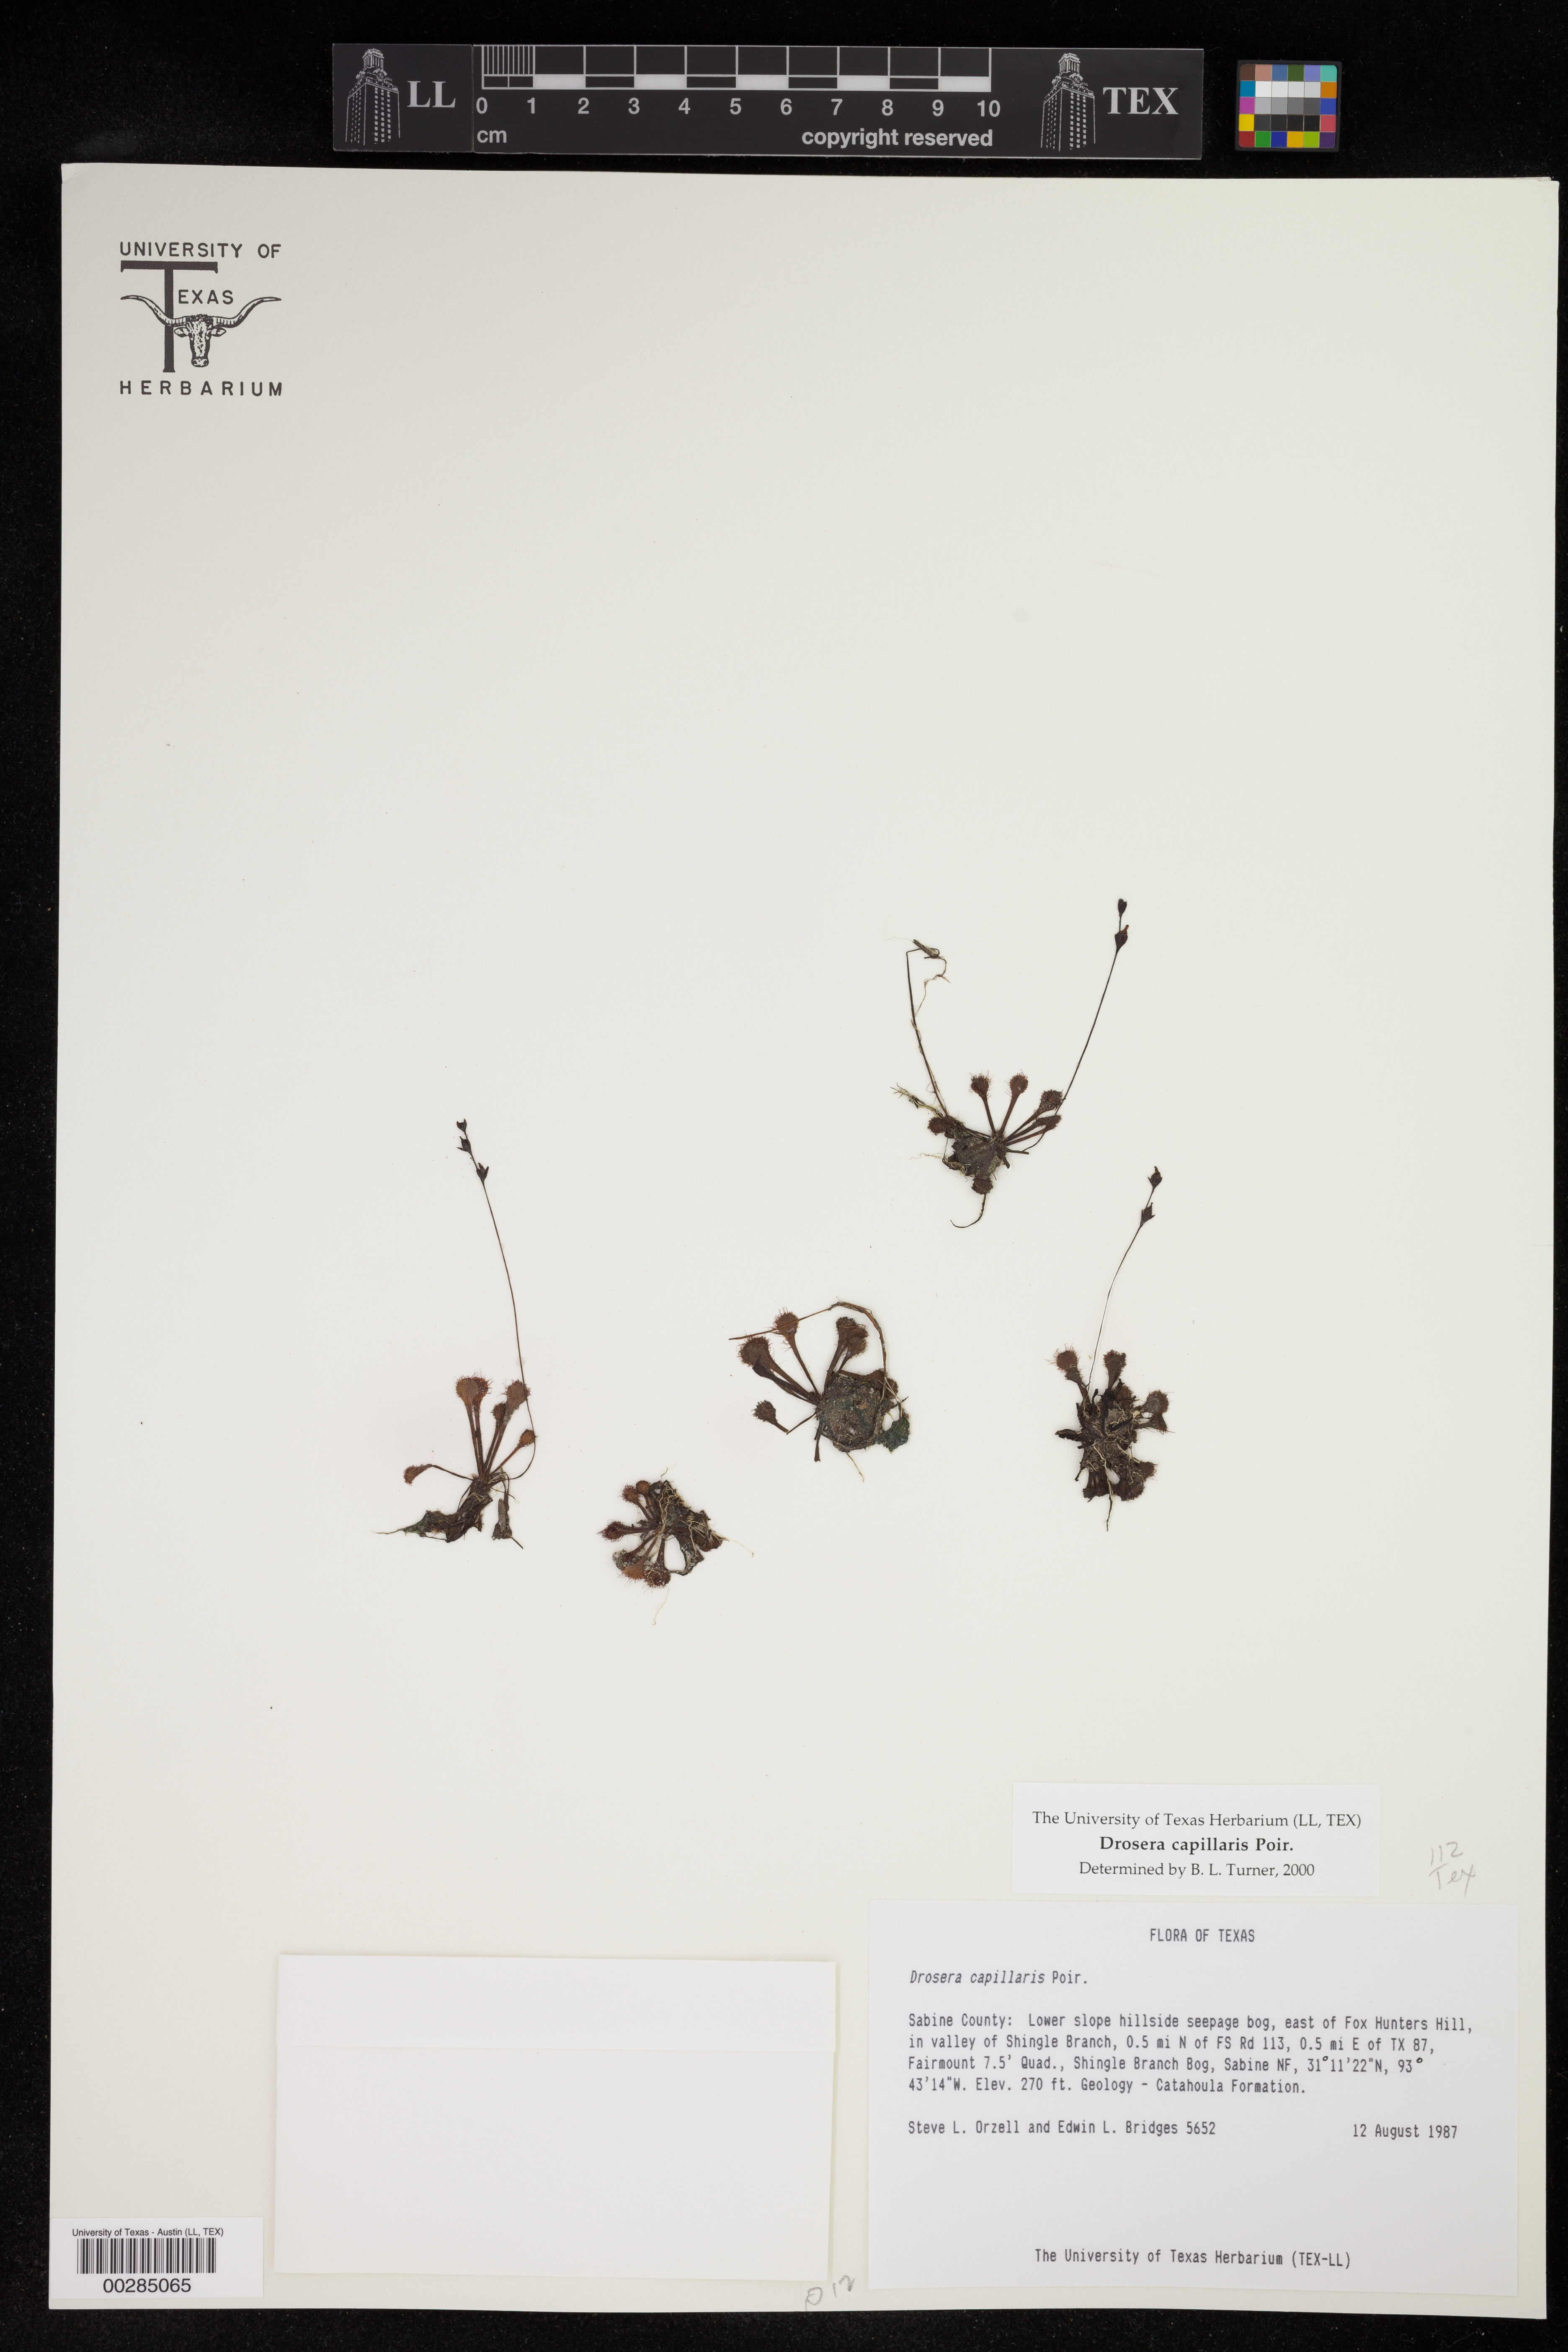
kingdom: Plantae
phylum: Tracheophyta
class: Magnoliopsida
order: Caryophyllales
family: Droseraceae
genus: Drosera
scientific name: Drosera capillaris
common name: Pink sundew
